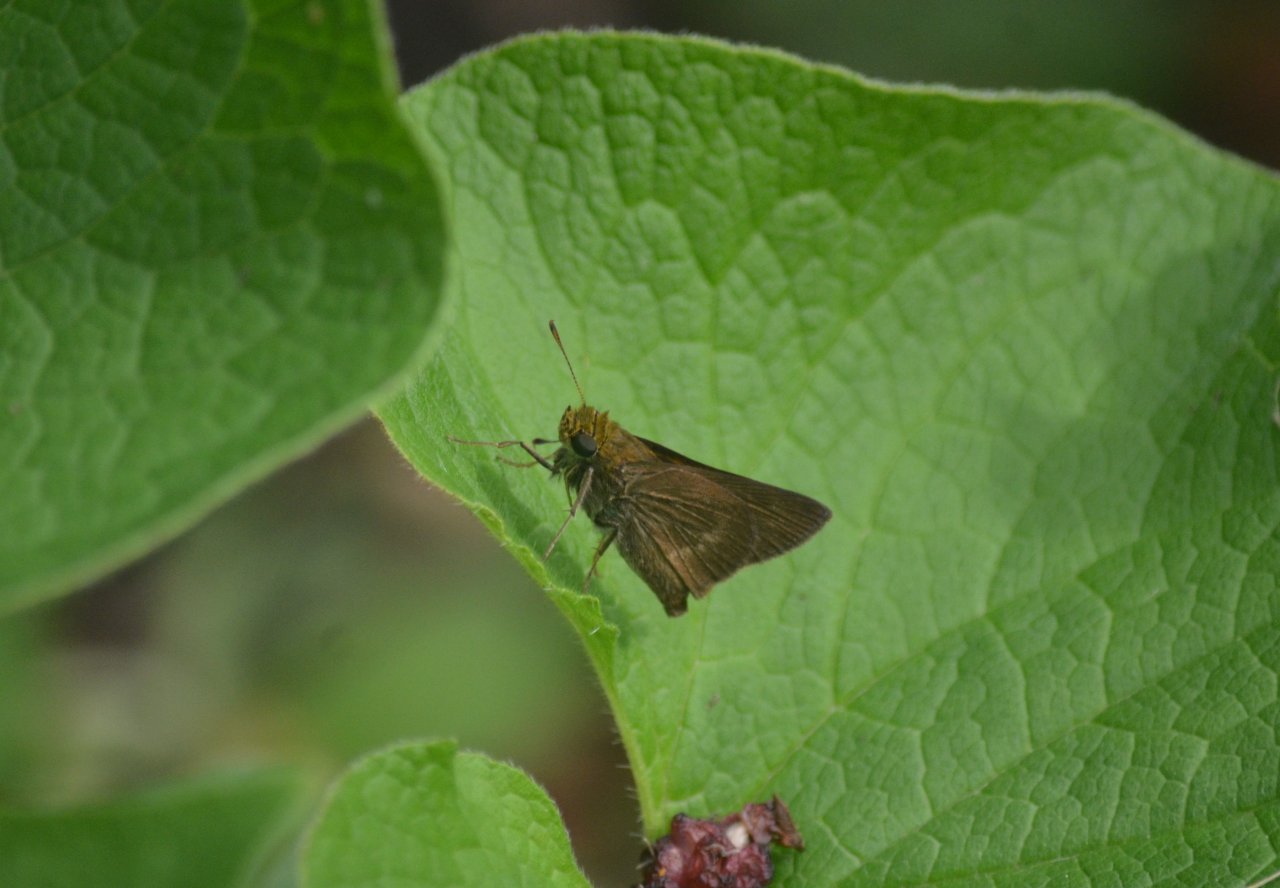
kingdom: Animalia
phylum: Arthropoda
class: Insecta
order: Lepidoptera
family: Hesperiidae
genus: Euphyes
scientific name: Euphyes vestris
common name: Dun Skipper
